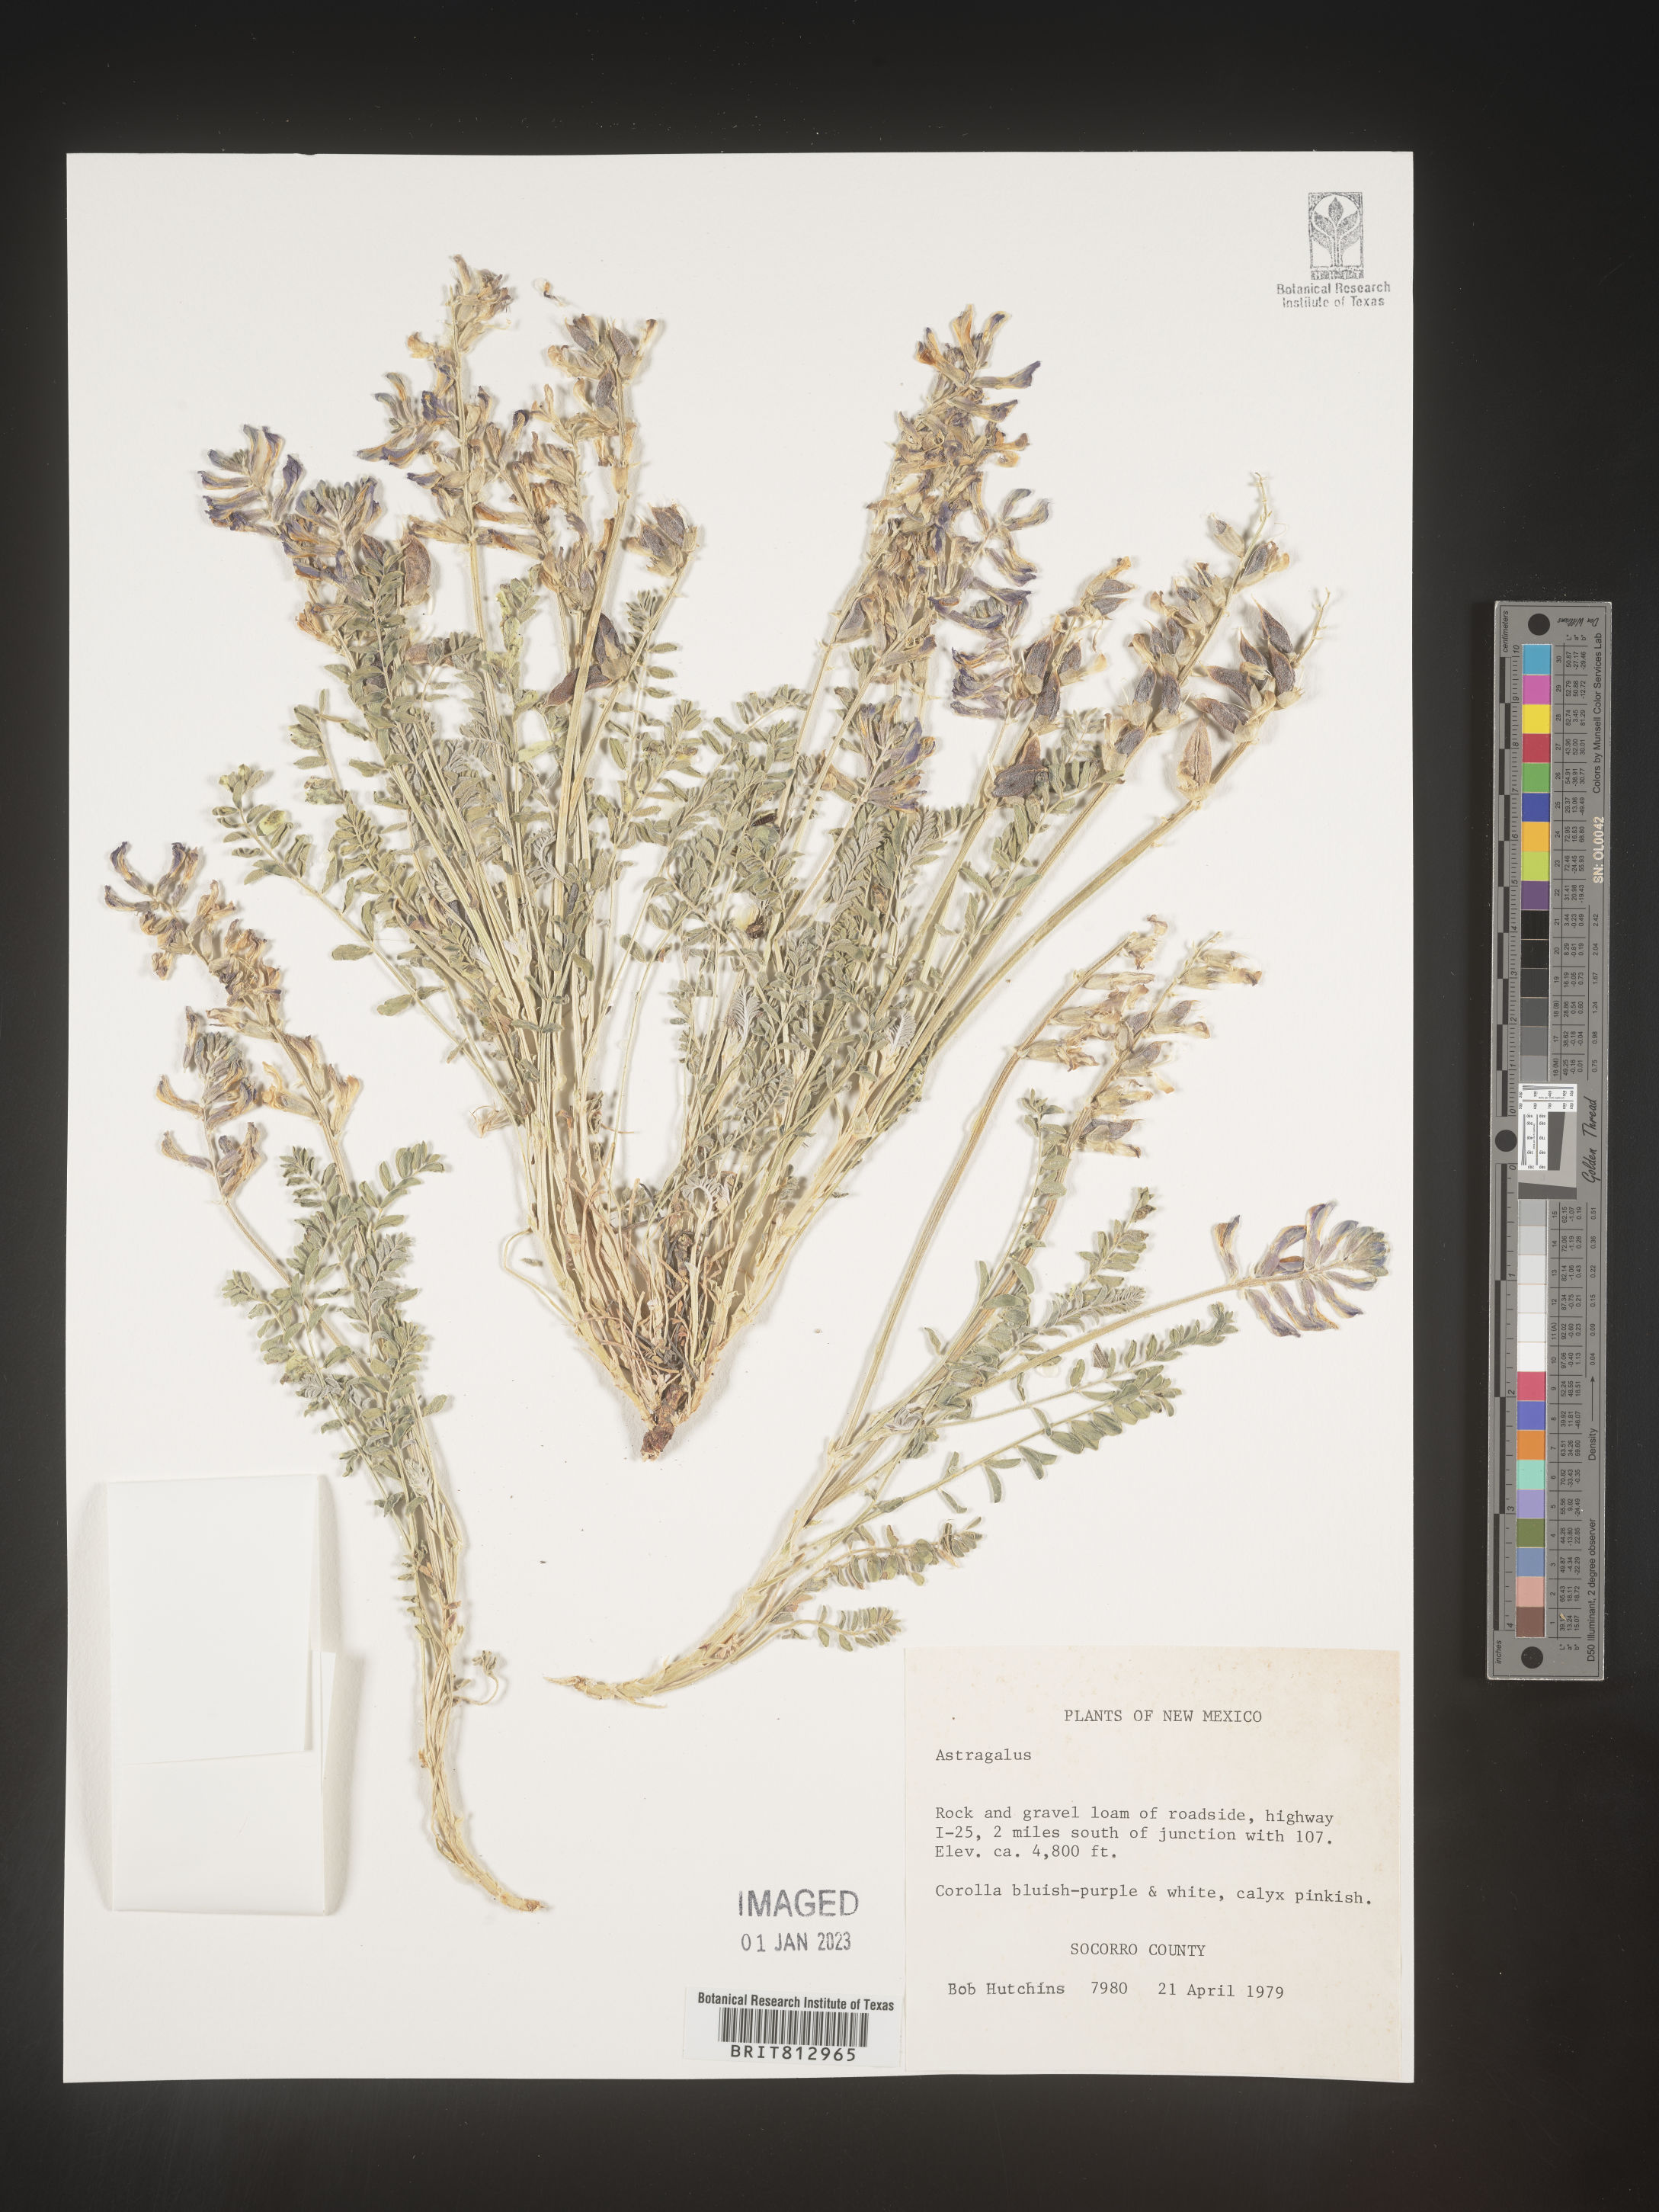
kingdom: Plantae
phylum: Tracheophyta
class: Magnoliopsida
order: Fabales
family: Fabaceae
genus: Astragalus
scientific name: Astragalus
